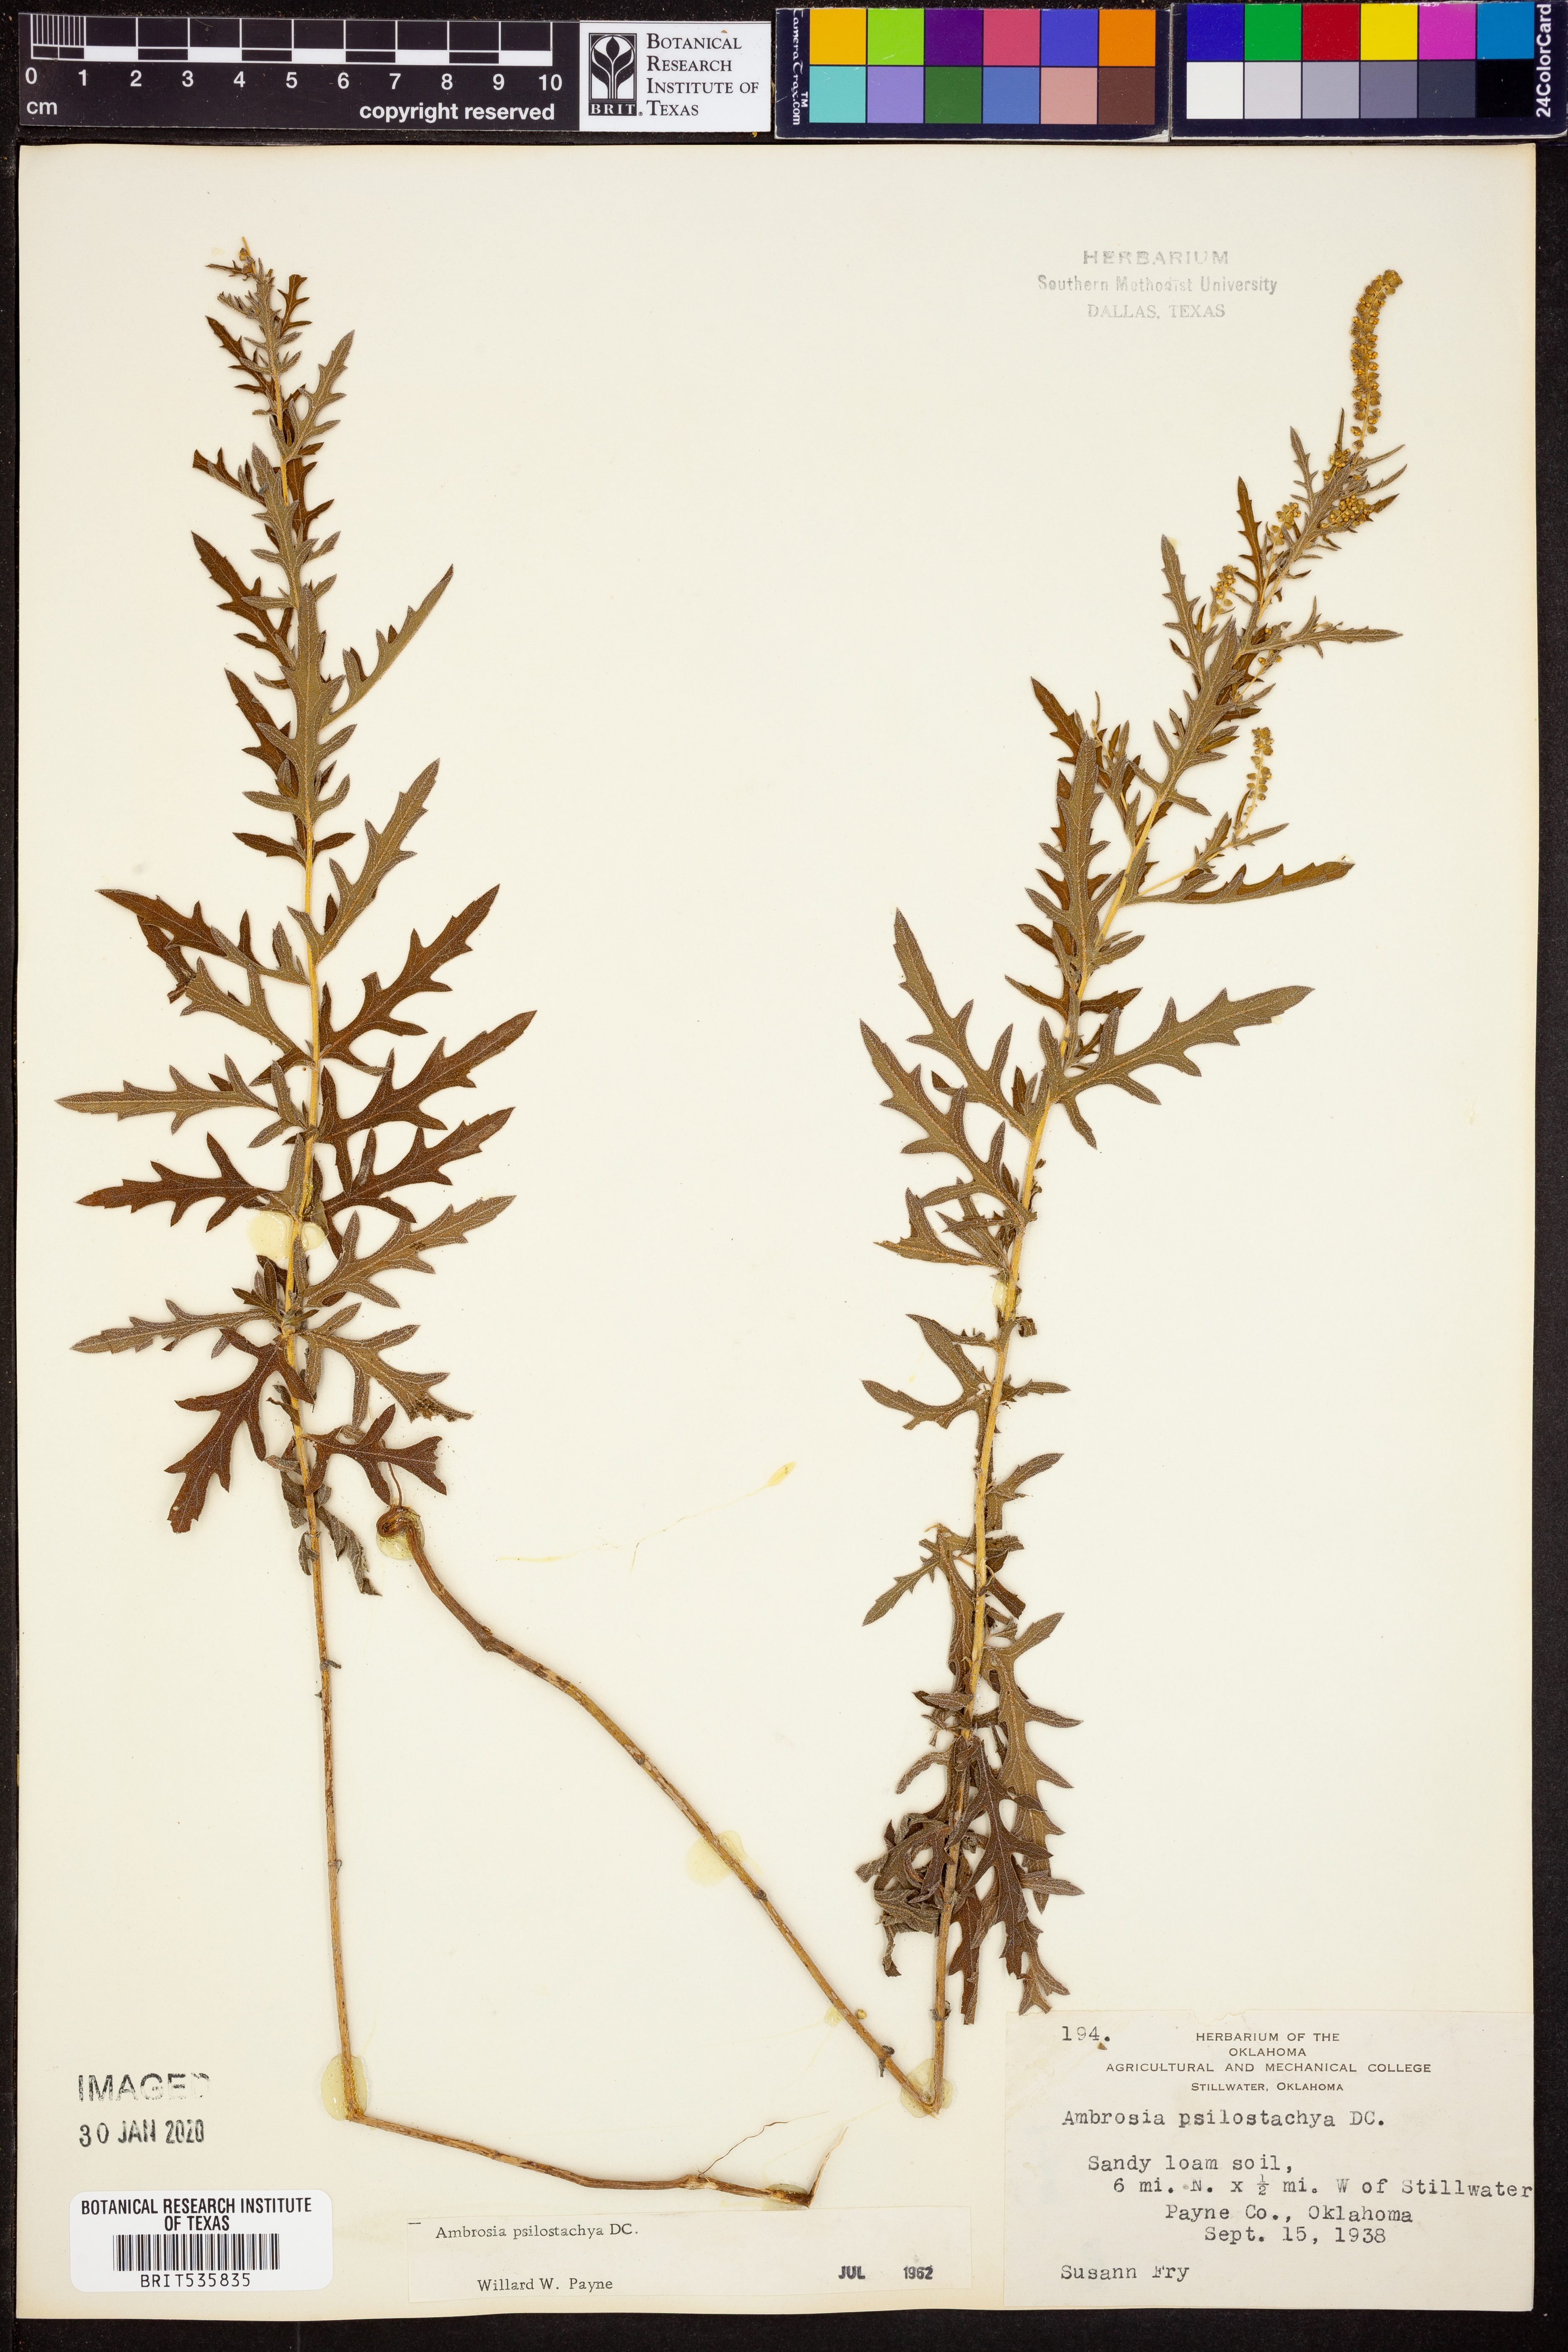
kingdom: Plantae
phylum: Tracheophyta
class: Magnoliopsida
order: Asterales
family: Asteraceae
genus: Ambrosia
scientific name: Ambrosia psilostachya
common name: Perennial ragweed
